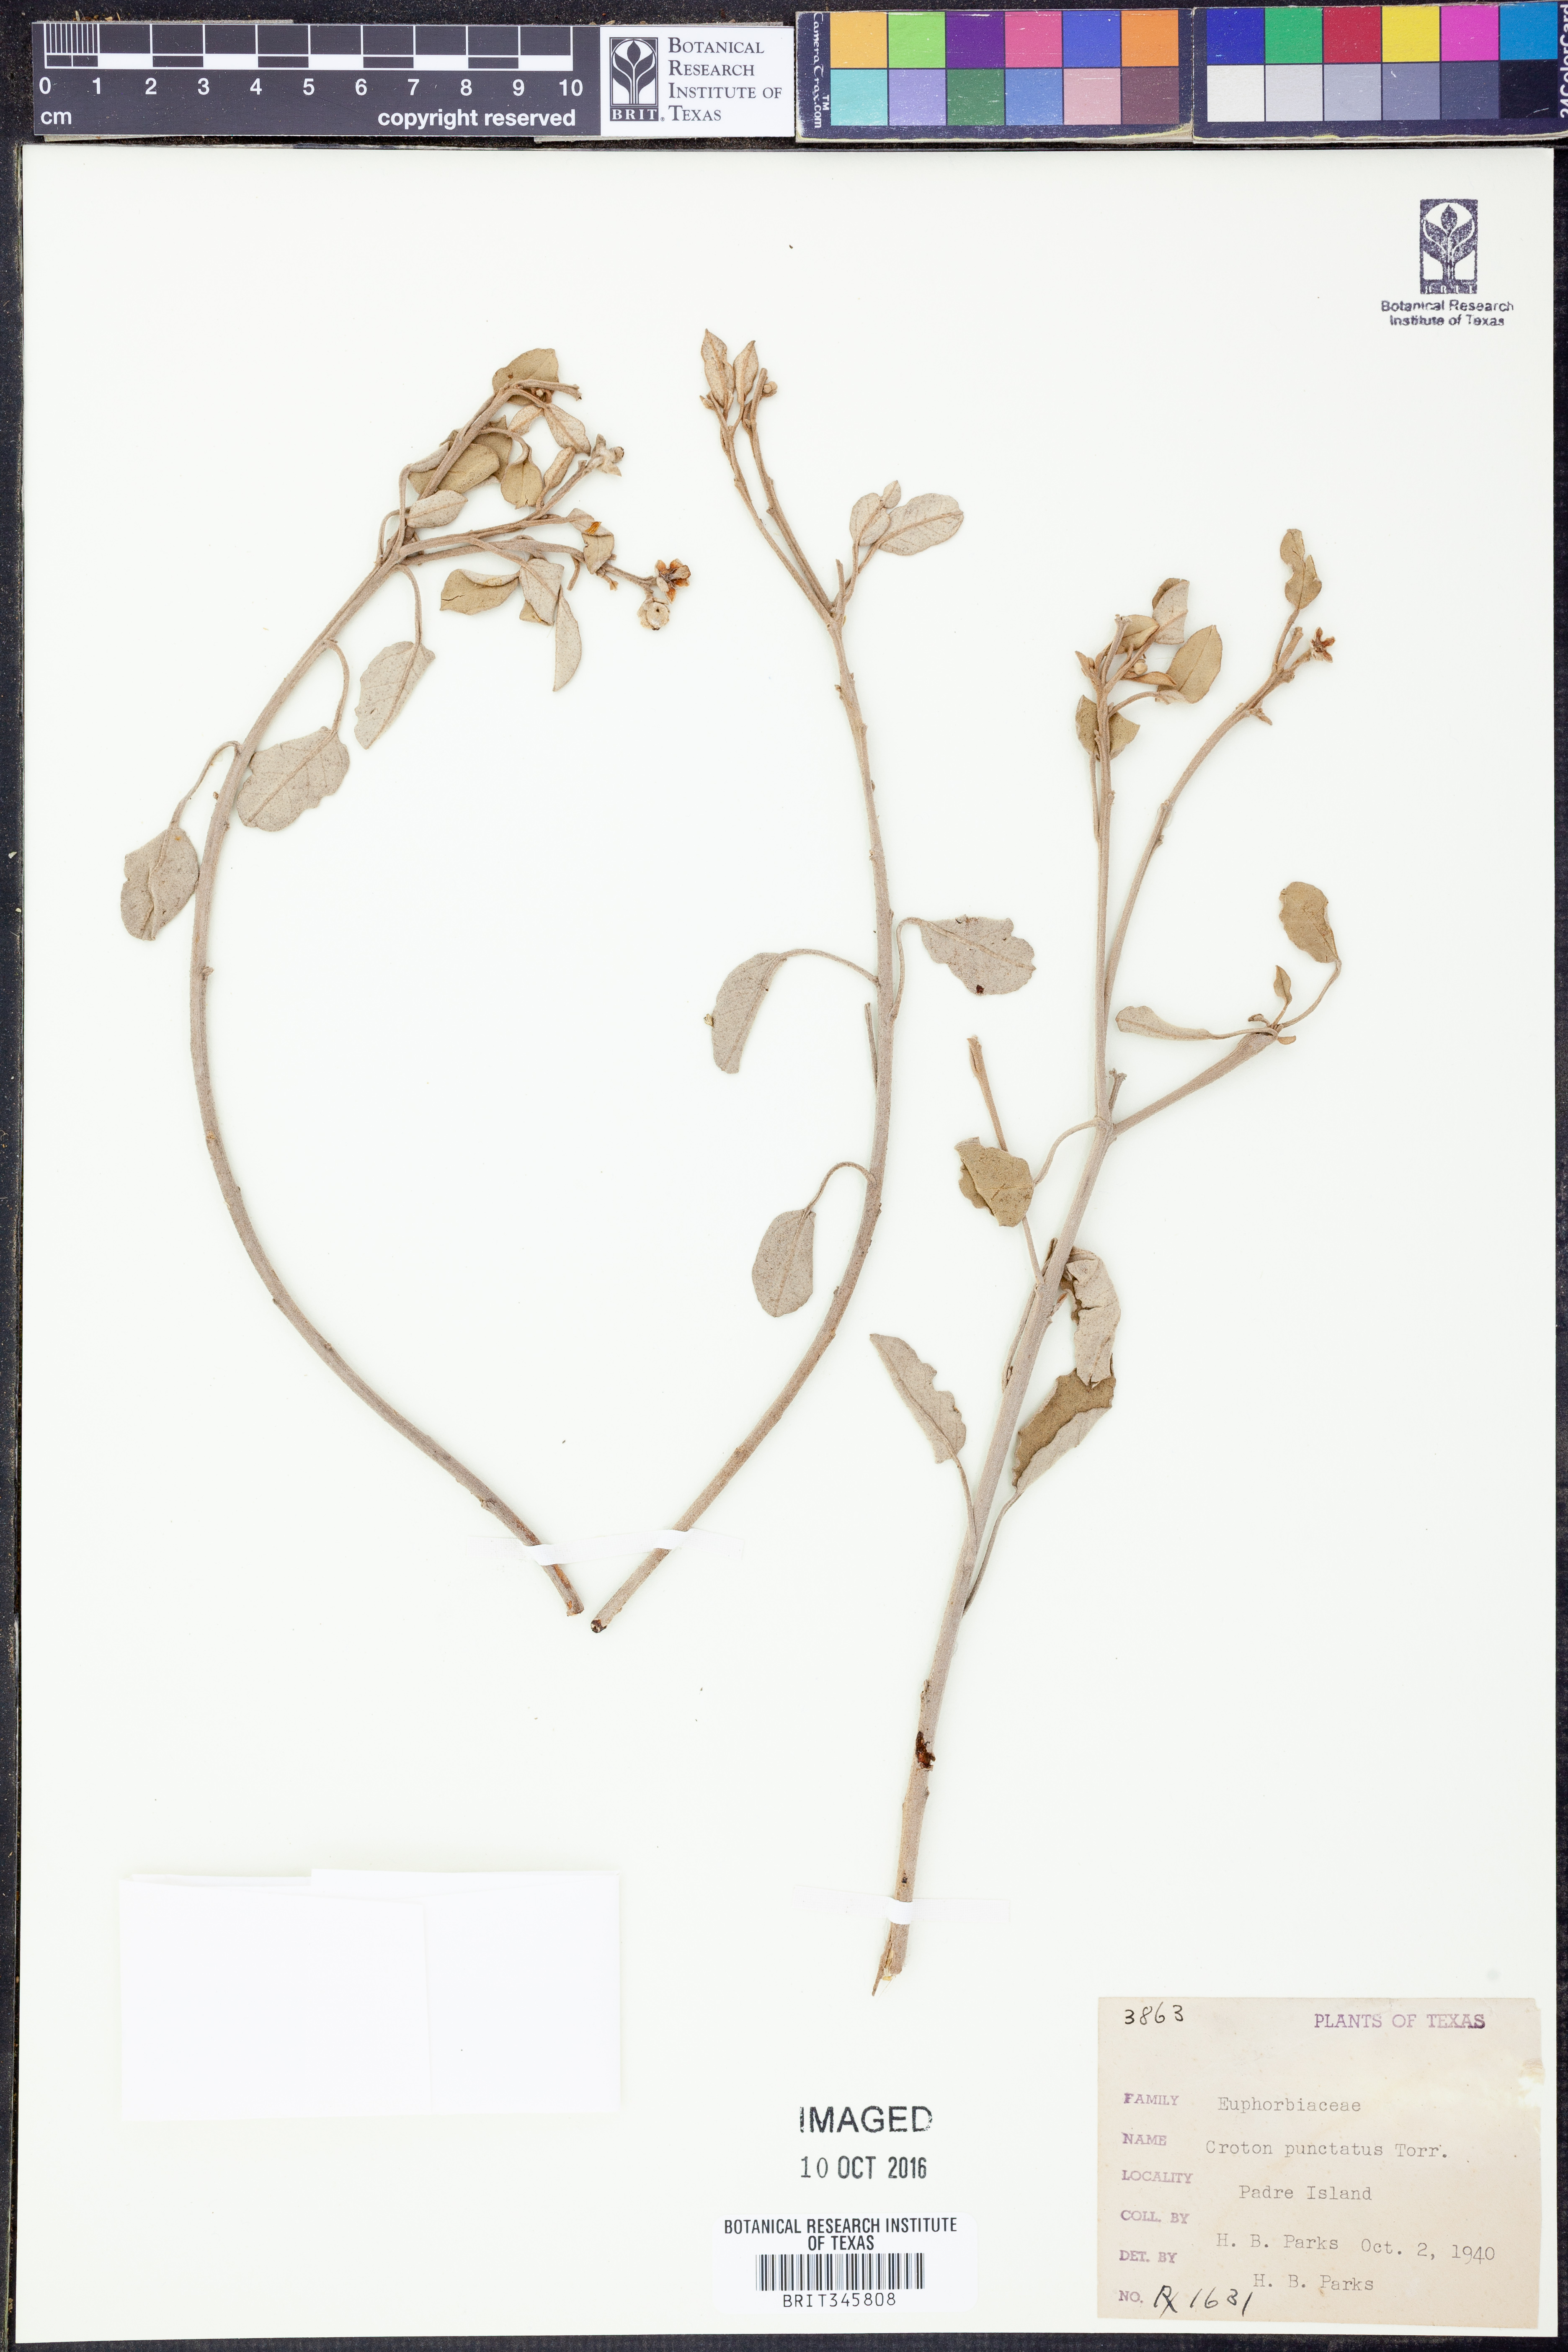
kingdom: Plantae
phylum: Tracheophyta
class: Magnoliopsida
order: Malpighiales
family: Euphorbiaceae
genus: Croton
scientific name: Croton punctatus
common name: Beach-tea
